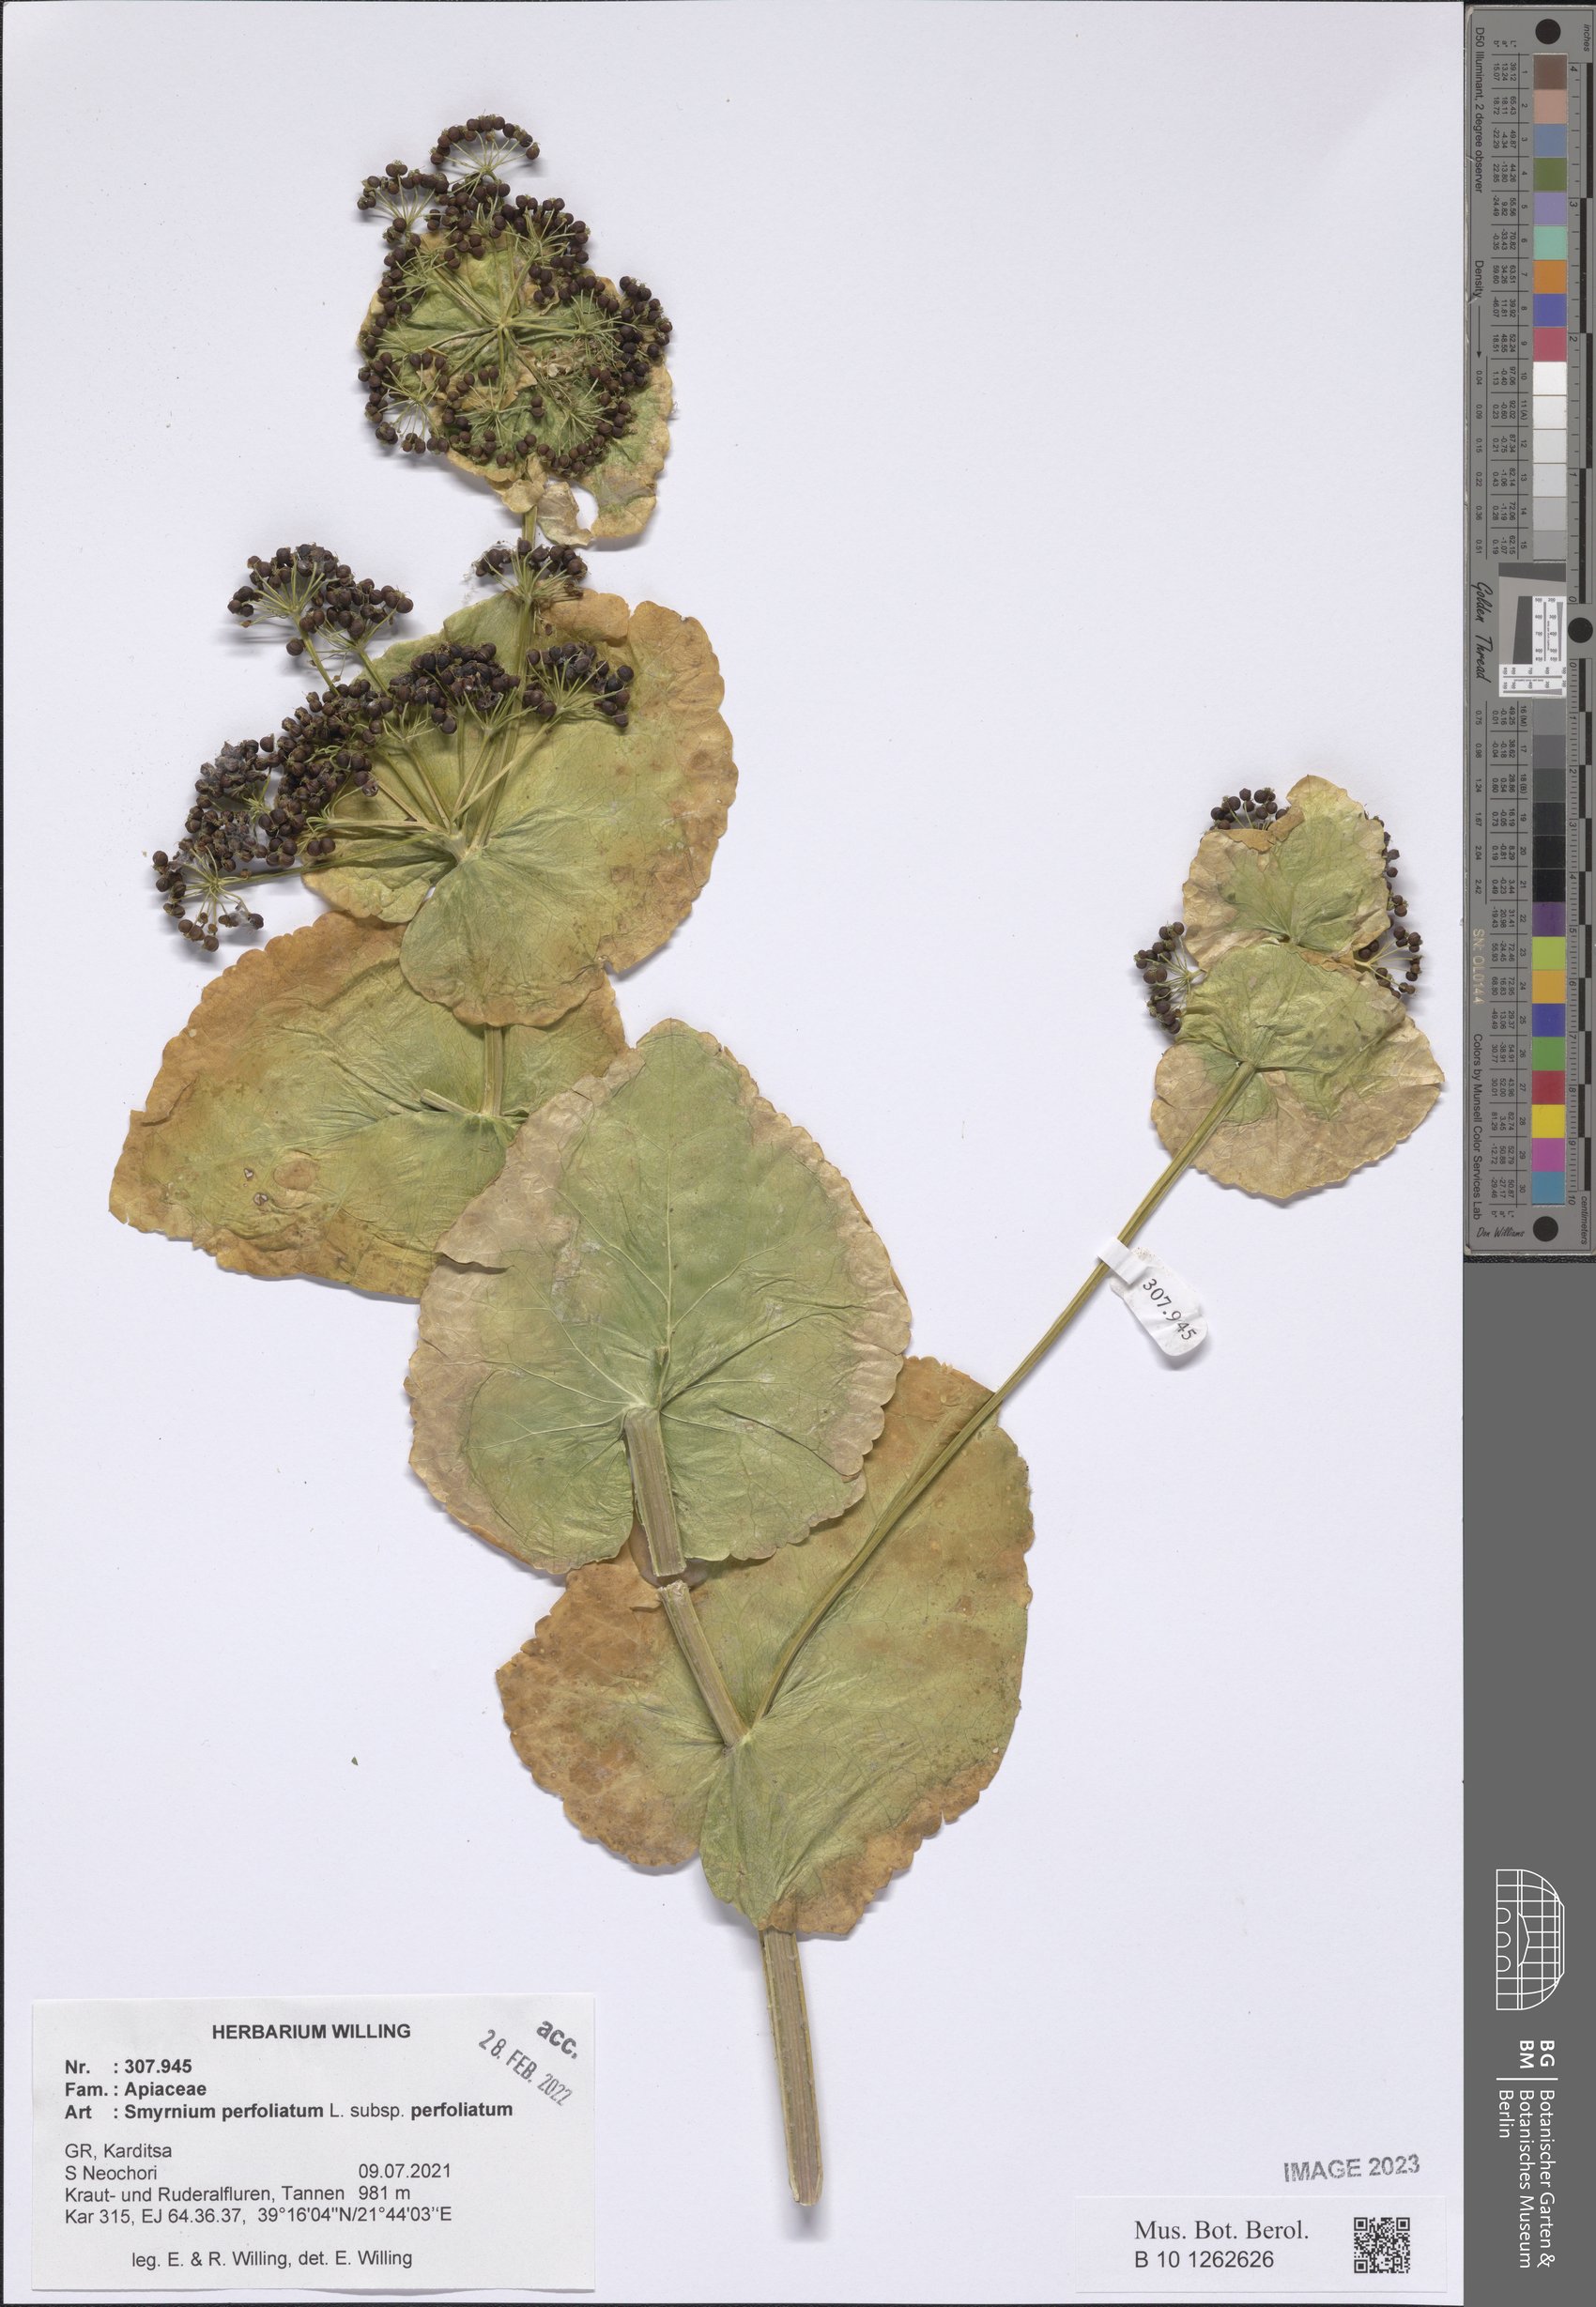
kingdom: Plantae
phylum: Tracheophyta
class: Magnoliopsida
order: Apiales
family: Apiaceae
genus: Smyrnium
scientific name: Smyrnium perfoliatum
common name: Perfoliate alexanders
